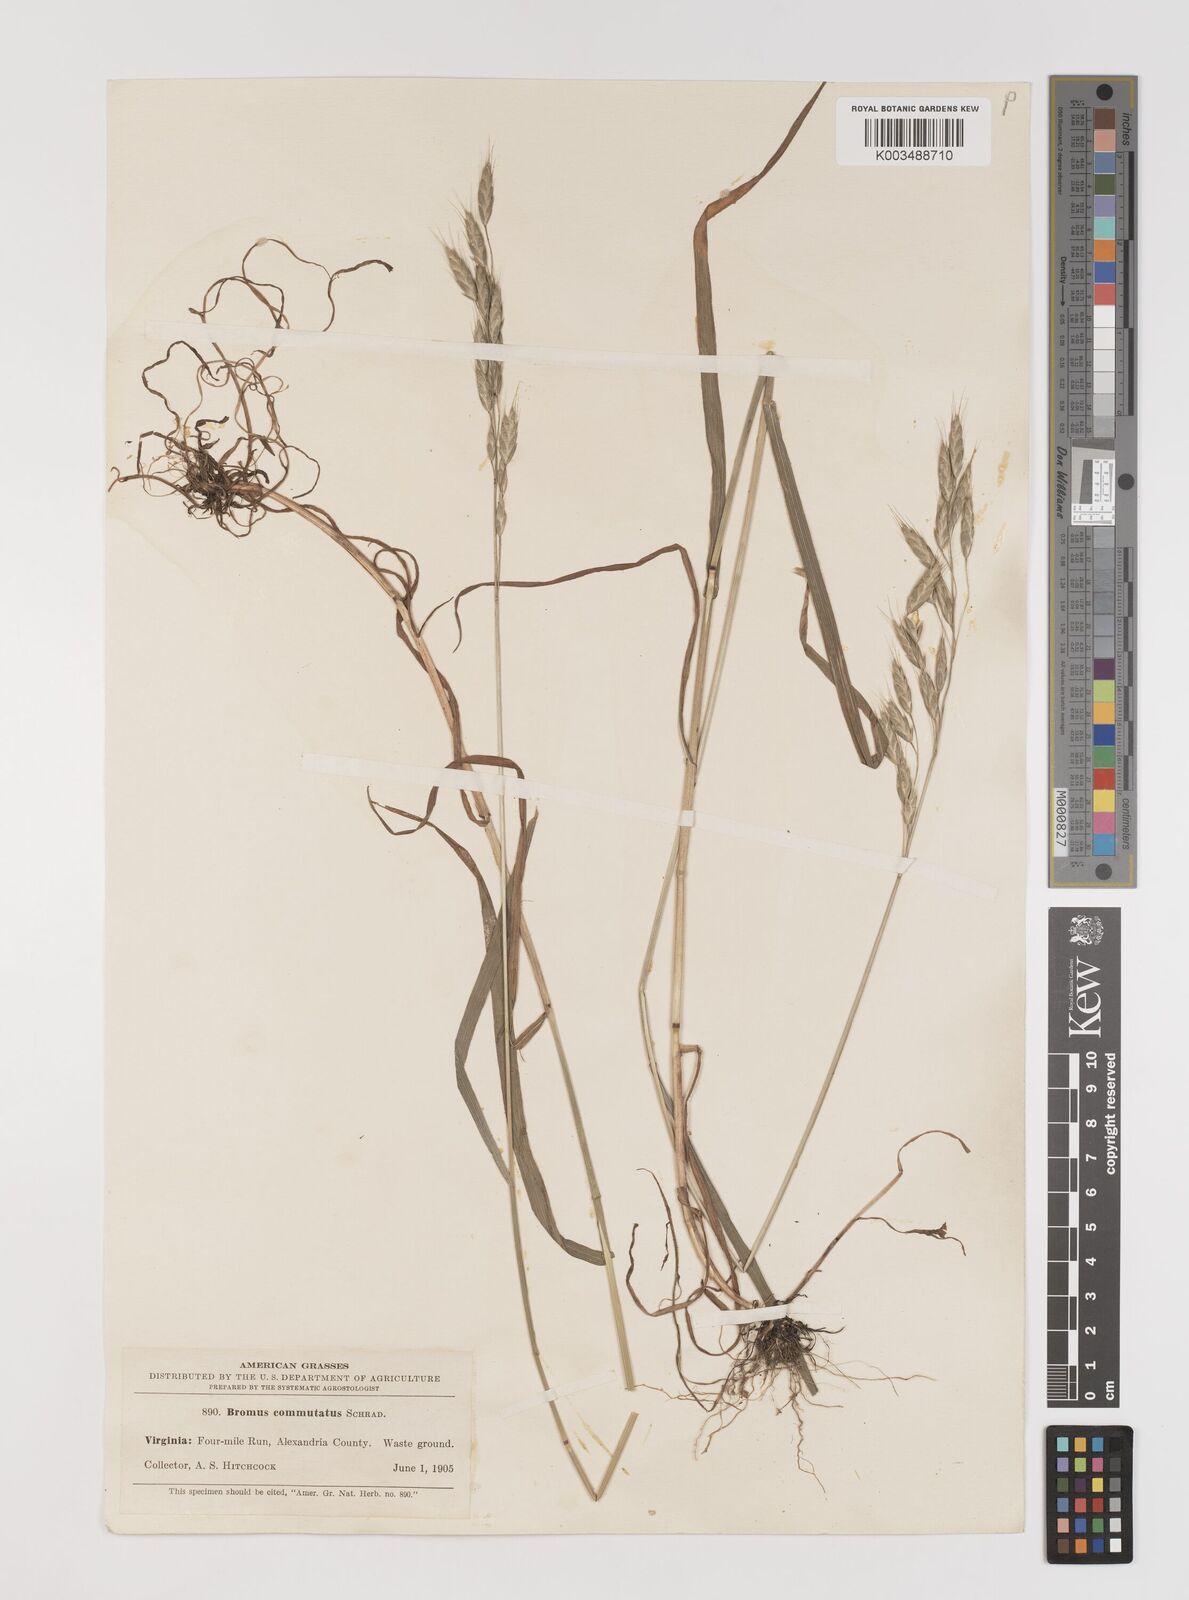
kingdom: Plantae
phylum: Tracheophyta
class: Liliopsida
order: Poales
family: Poaceae
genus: Bromus
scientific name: Bromus racemosus
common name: Bald brome
